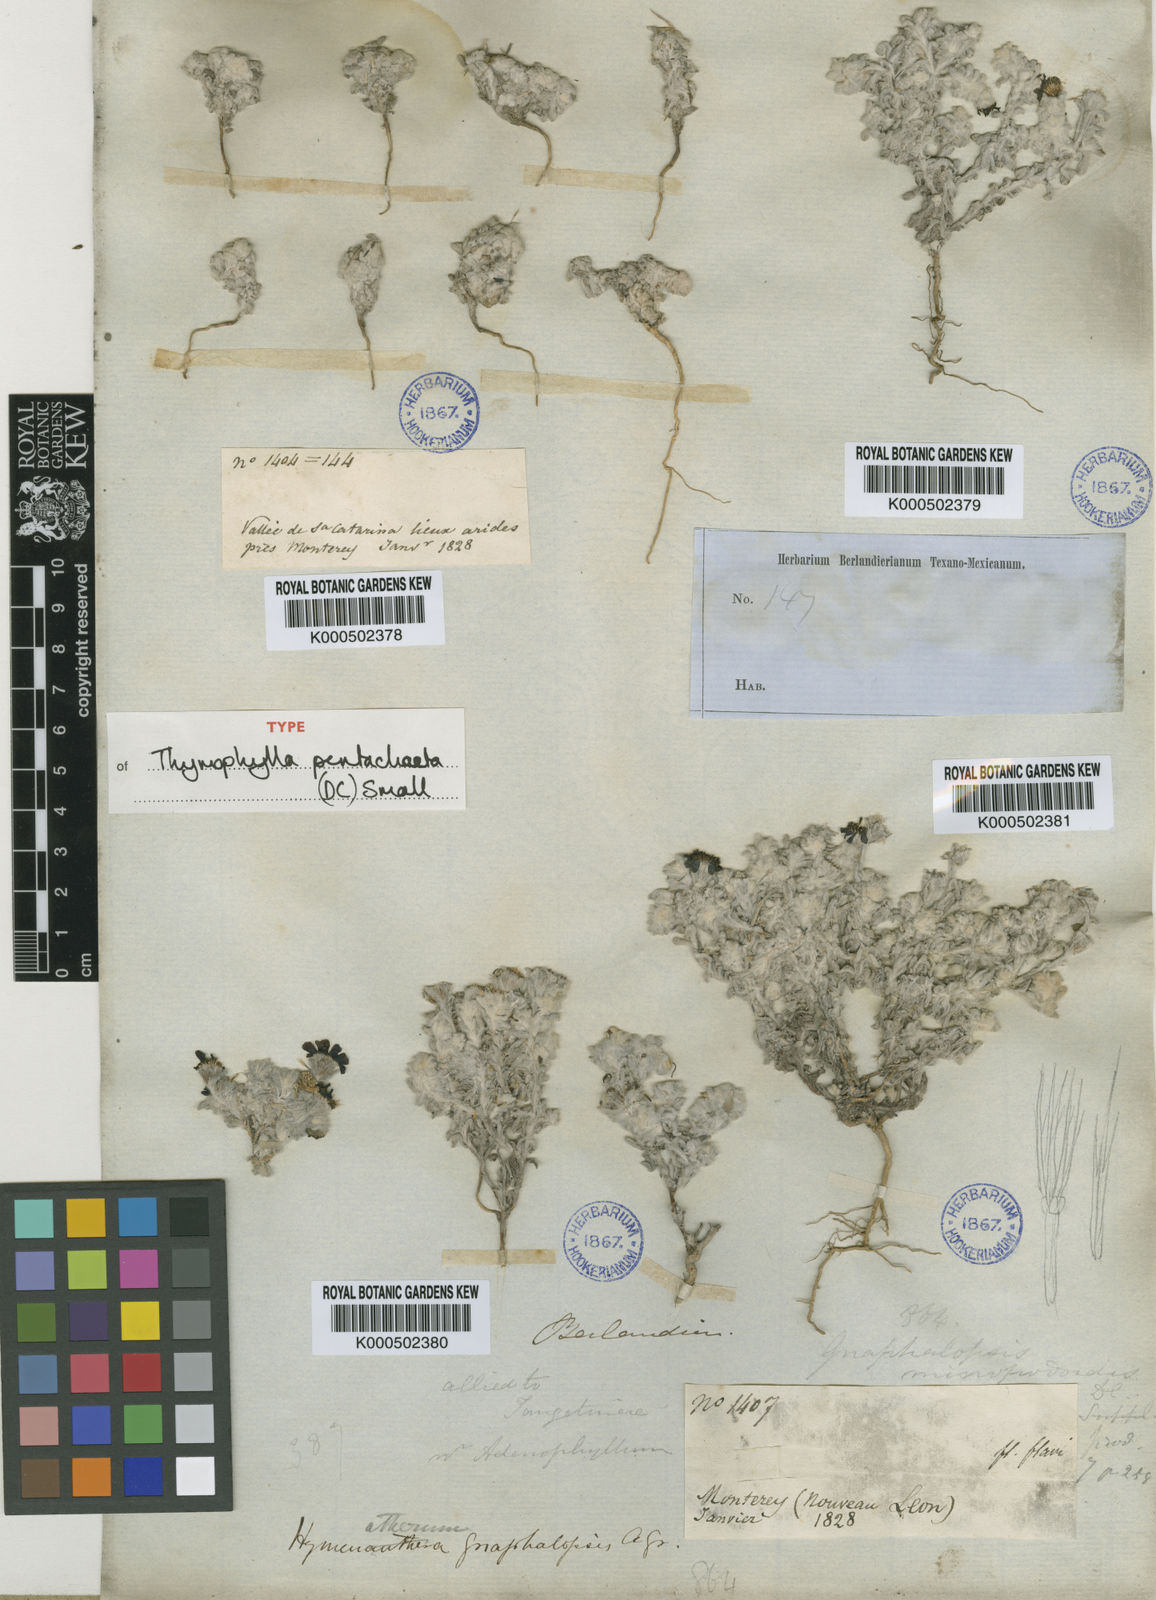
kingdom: Plantae
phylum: Tracheophyta
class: Magnoliopsida
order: Asterales
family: Asteraceae
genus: Thymophylla
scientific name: Thymophylla micropoides
